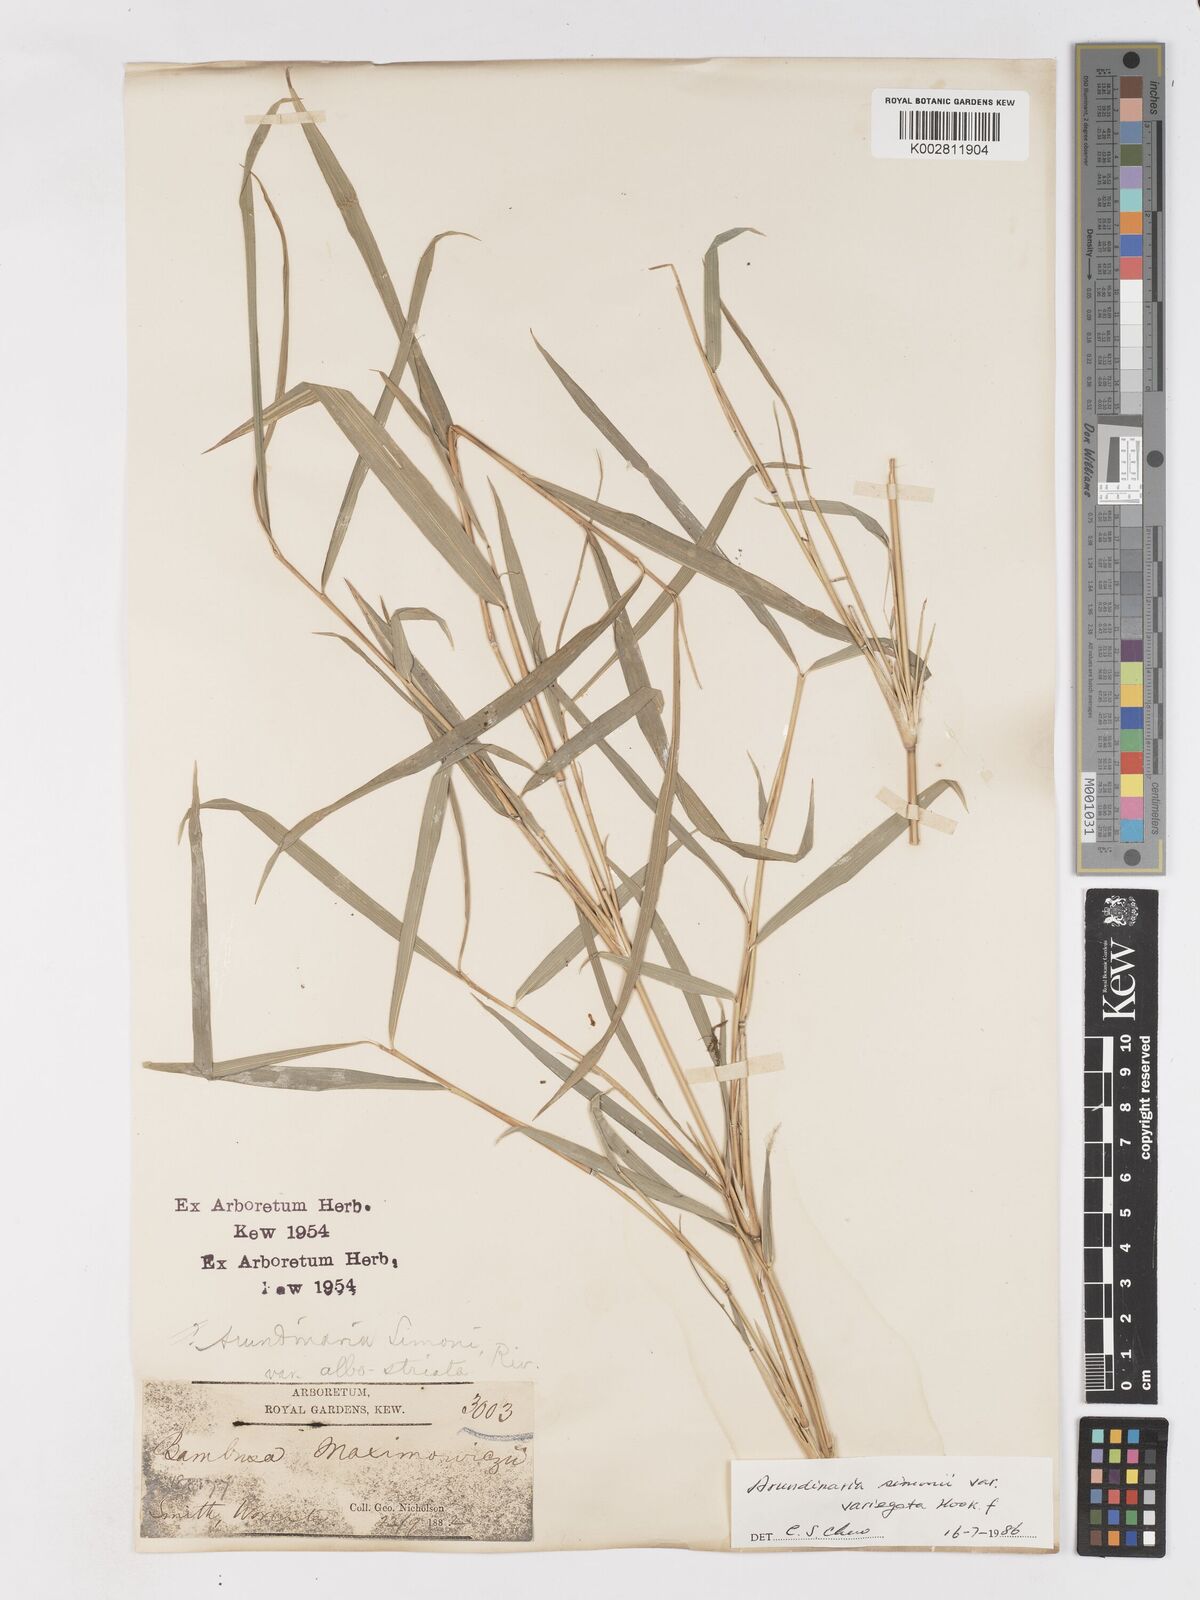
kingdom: Plantae
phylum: Tracheophyta
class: Liliopsida
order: Poales
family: Poaceae
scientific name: Poaceae
